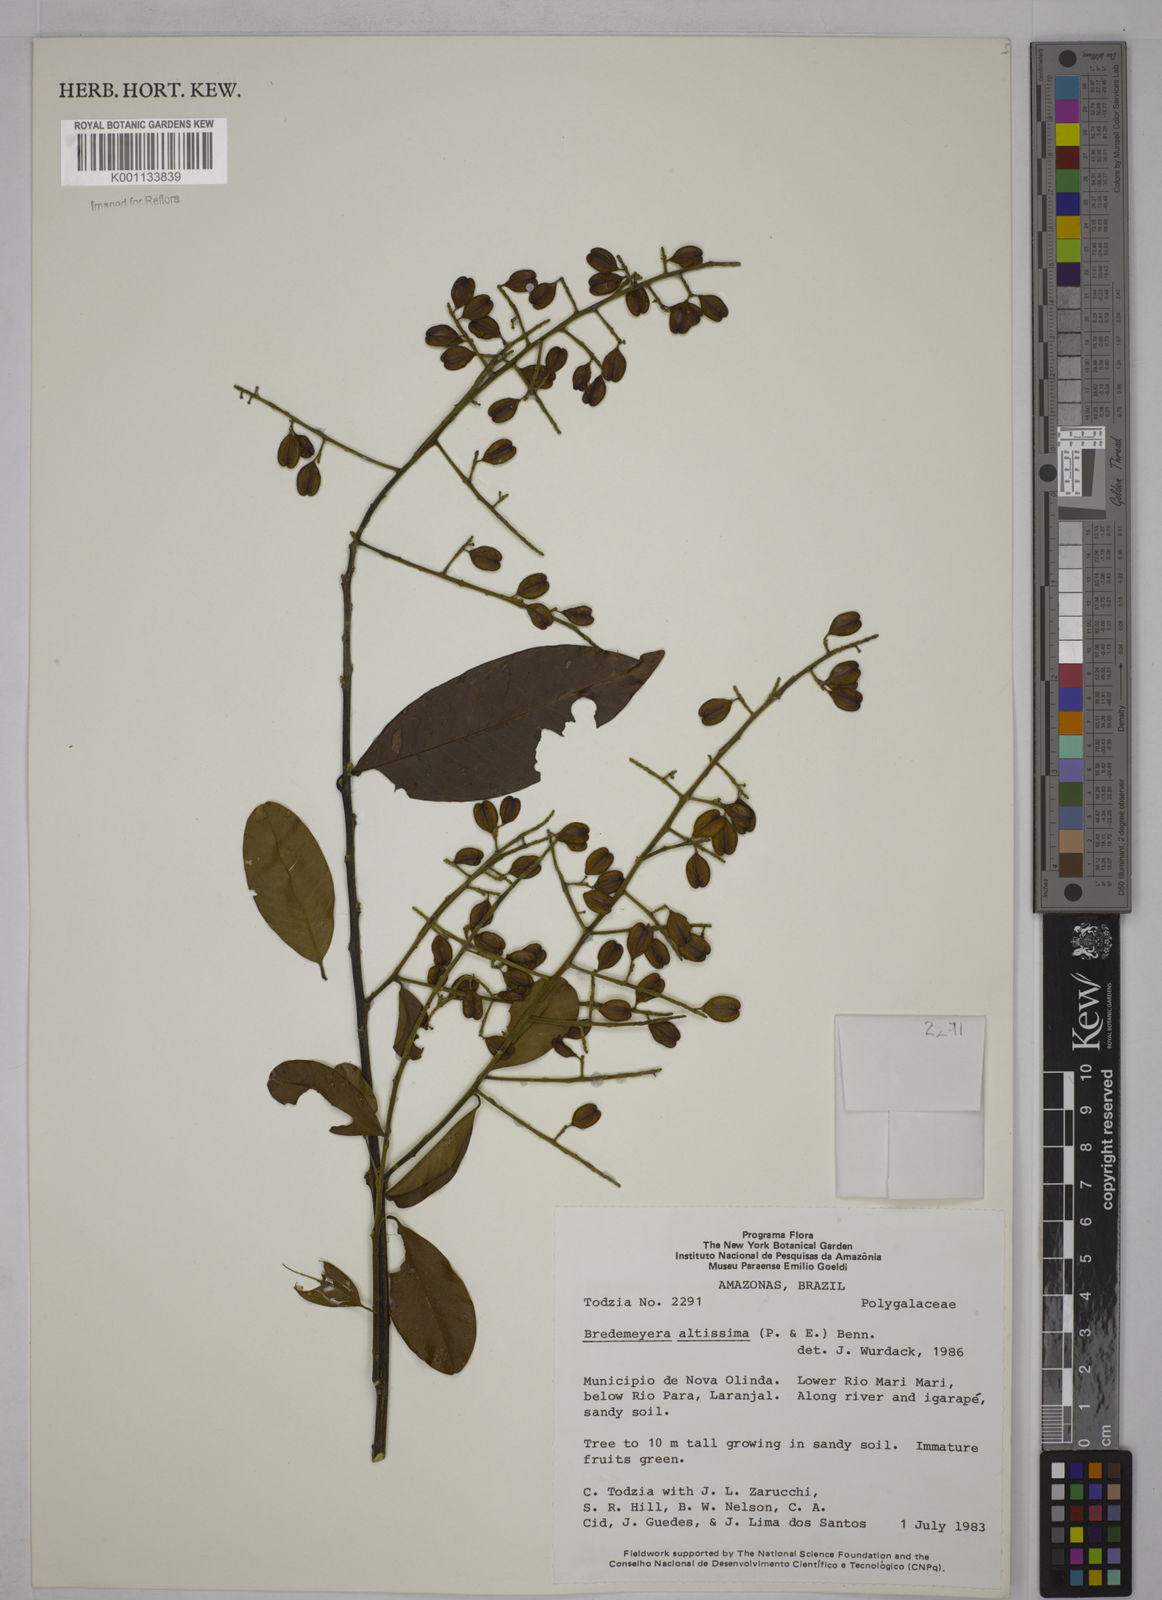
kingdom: Plantae
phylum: Tracheophyta
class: Magnoliopsida
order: Fabales
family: Polygalaceae
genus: Bredemeyera
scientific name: Bredemeyera divaricata
